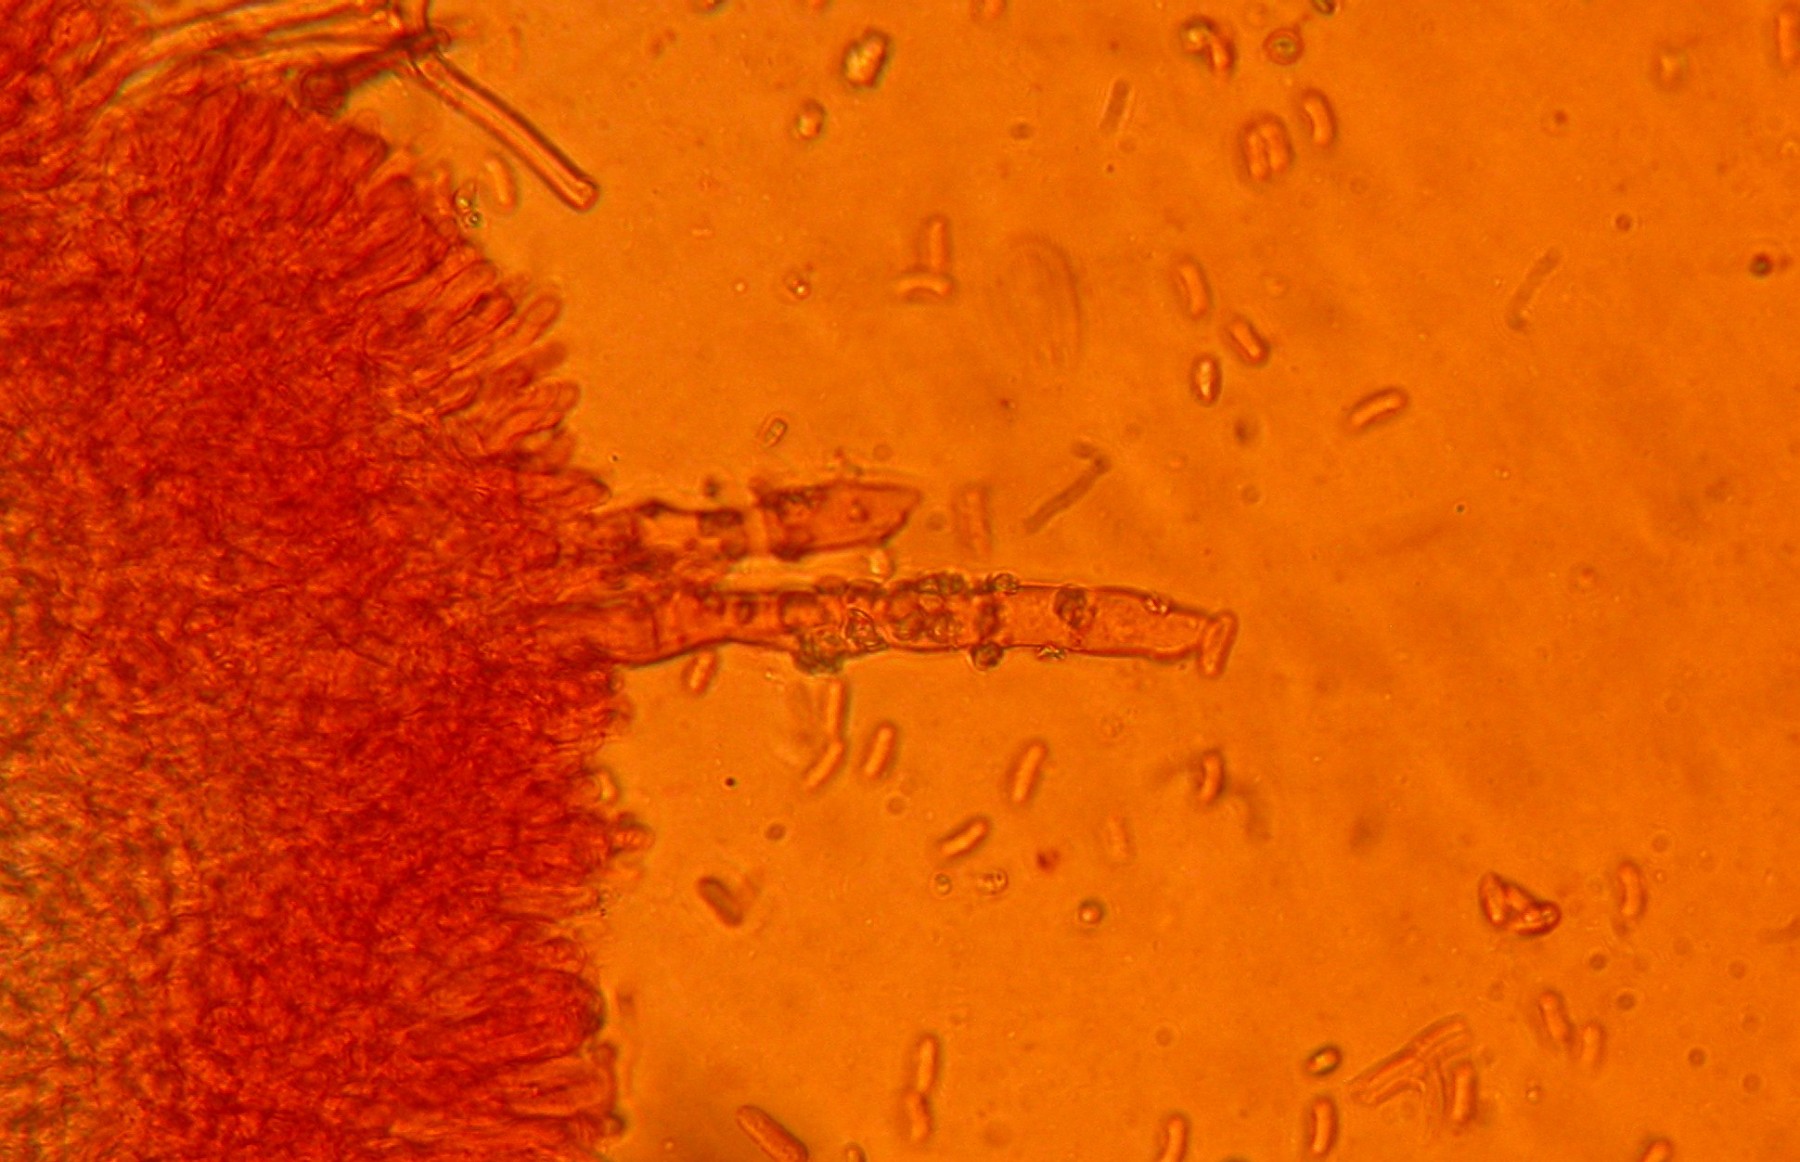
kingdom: Fungi
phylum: Basidiomycota
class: Agaricomycetes
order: Polyporales
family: Hyphodermataceae
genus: Hyphoderma
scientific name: Hyphoderma setigerum
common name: håret kalkskind
